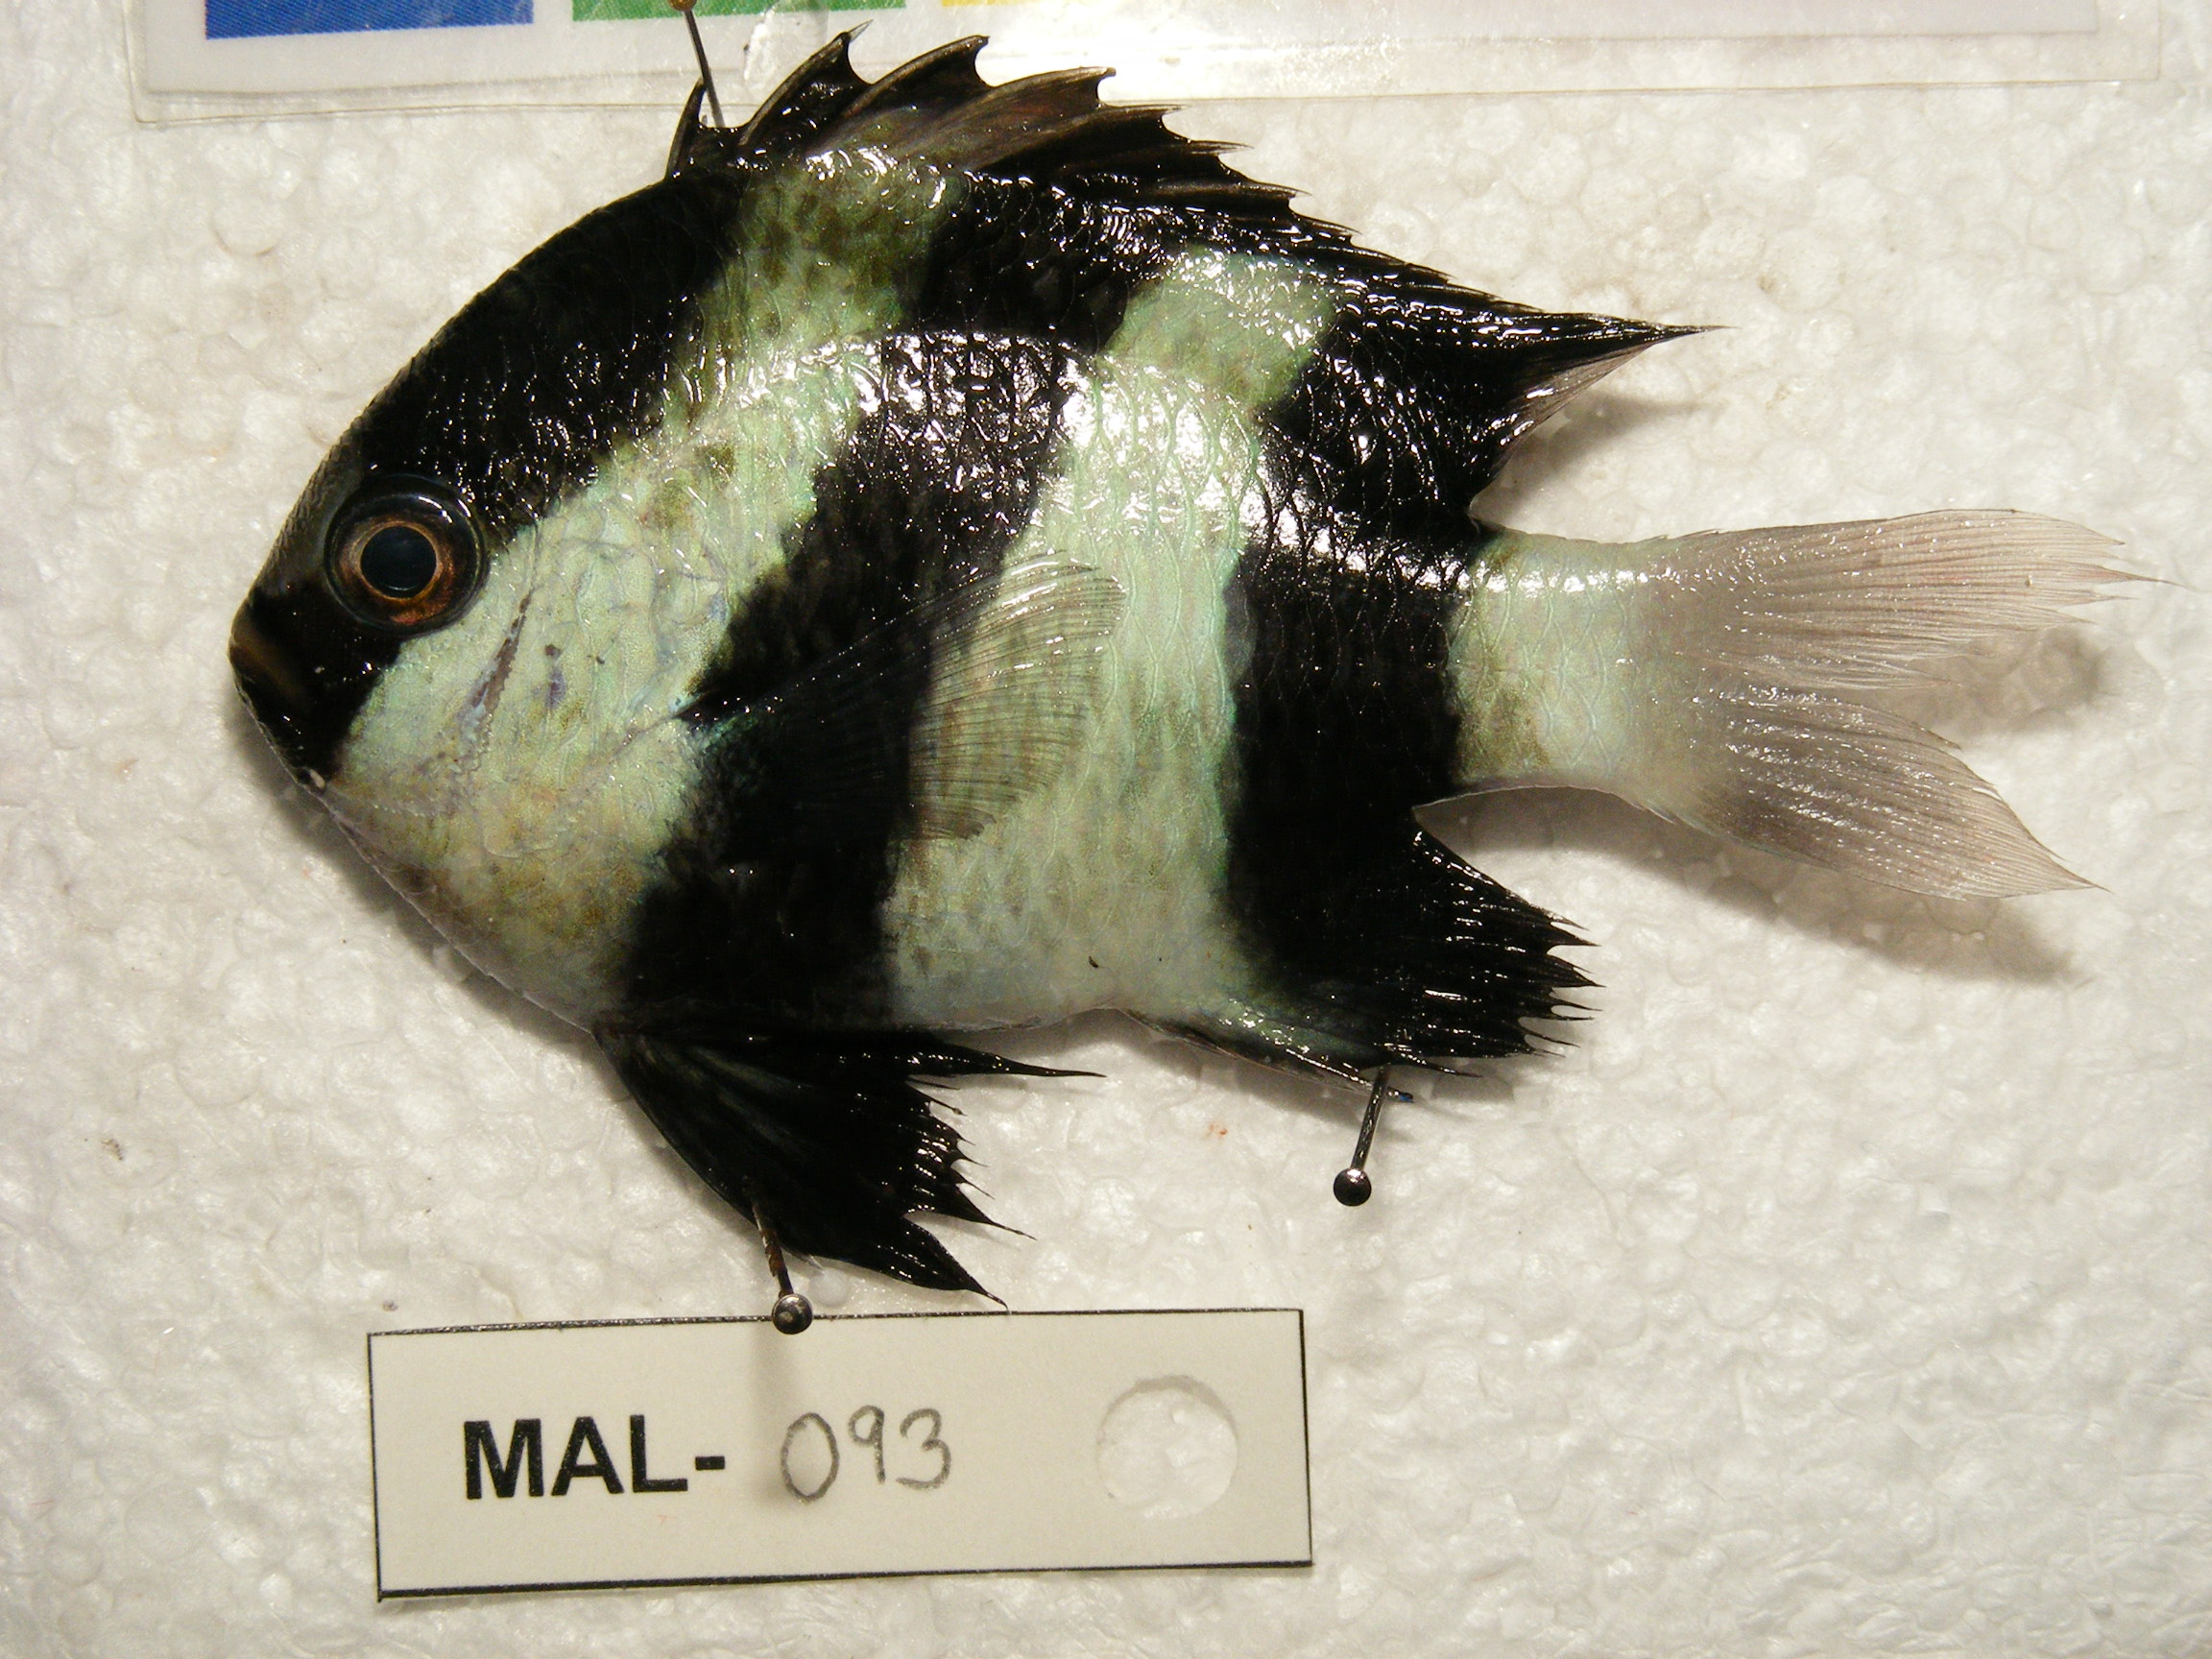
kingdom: Animalia
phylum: Chordata
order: Perciformes
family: Pomacentridae
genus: Dascyllus
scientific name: Dascyllus aruanus
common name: Humbug dascyllus
